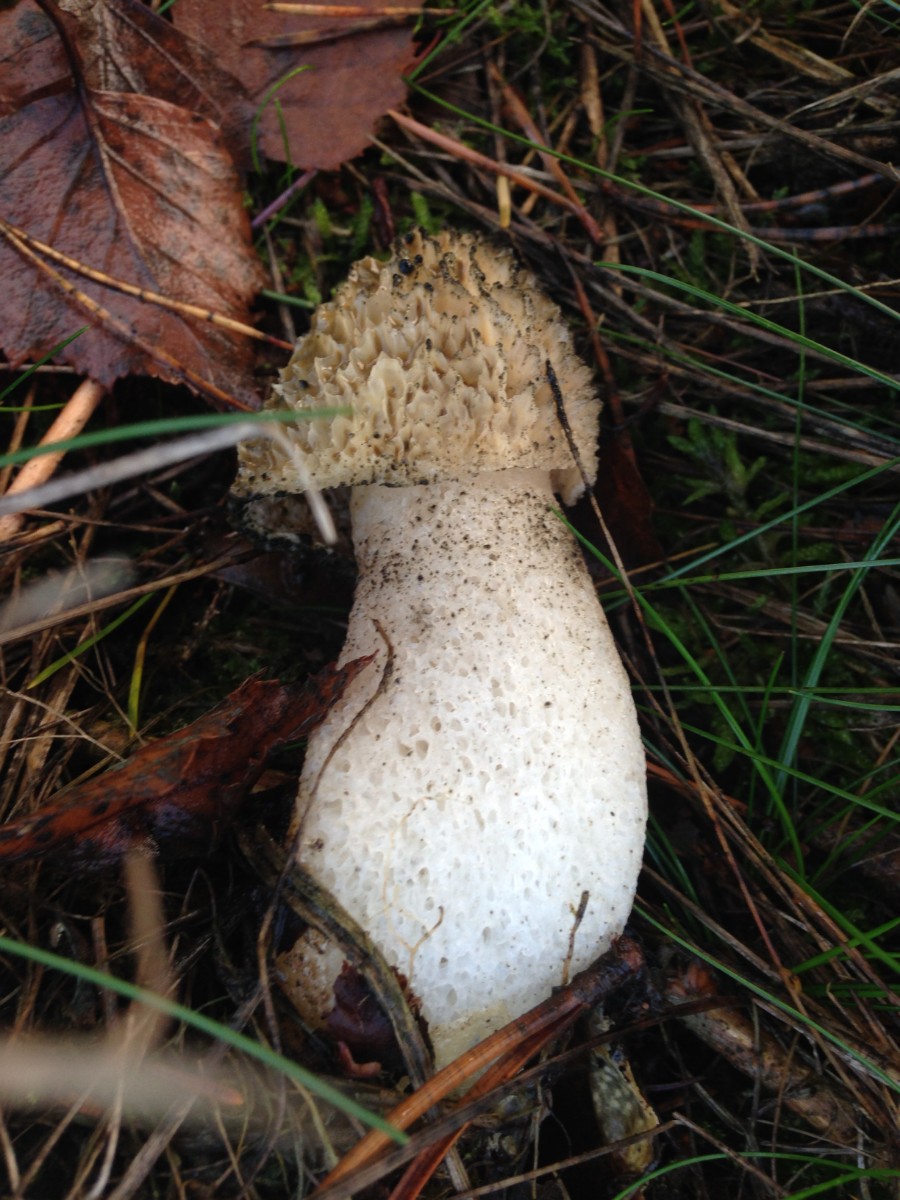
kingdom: Fungi
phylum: Basidiomycota
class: Agaricomycetes
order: Phallales
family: Phallaceae
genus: Phallus
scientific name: Phallus impudicus
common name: almindelig stinksvamp
